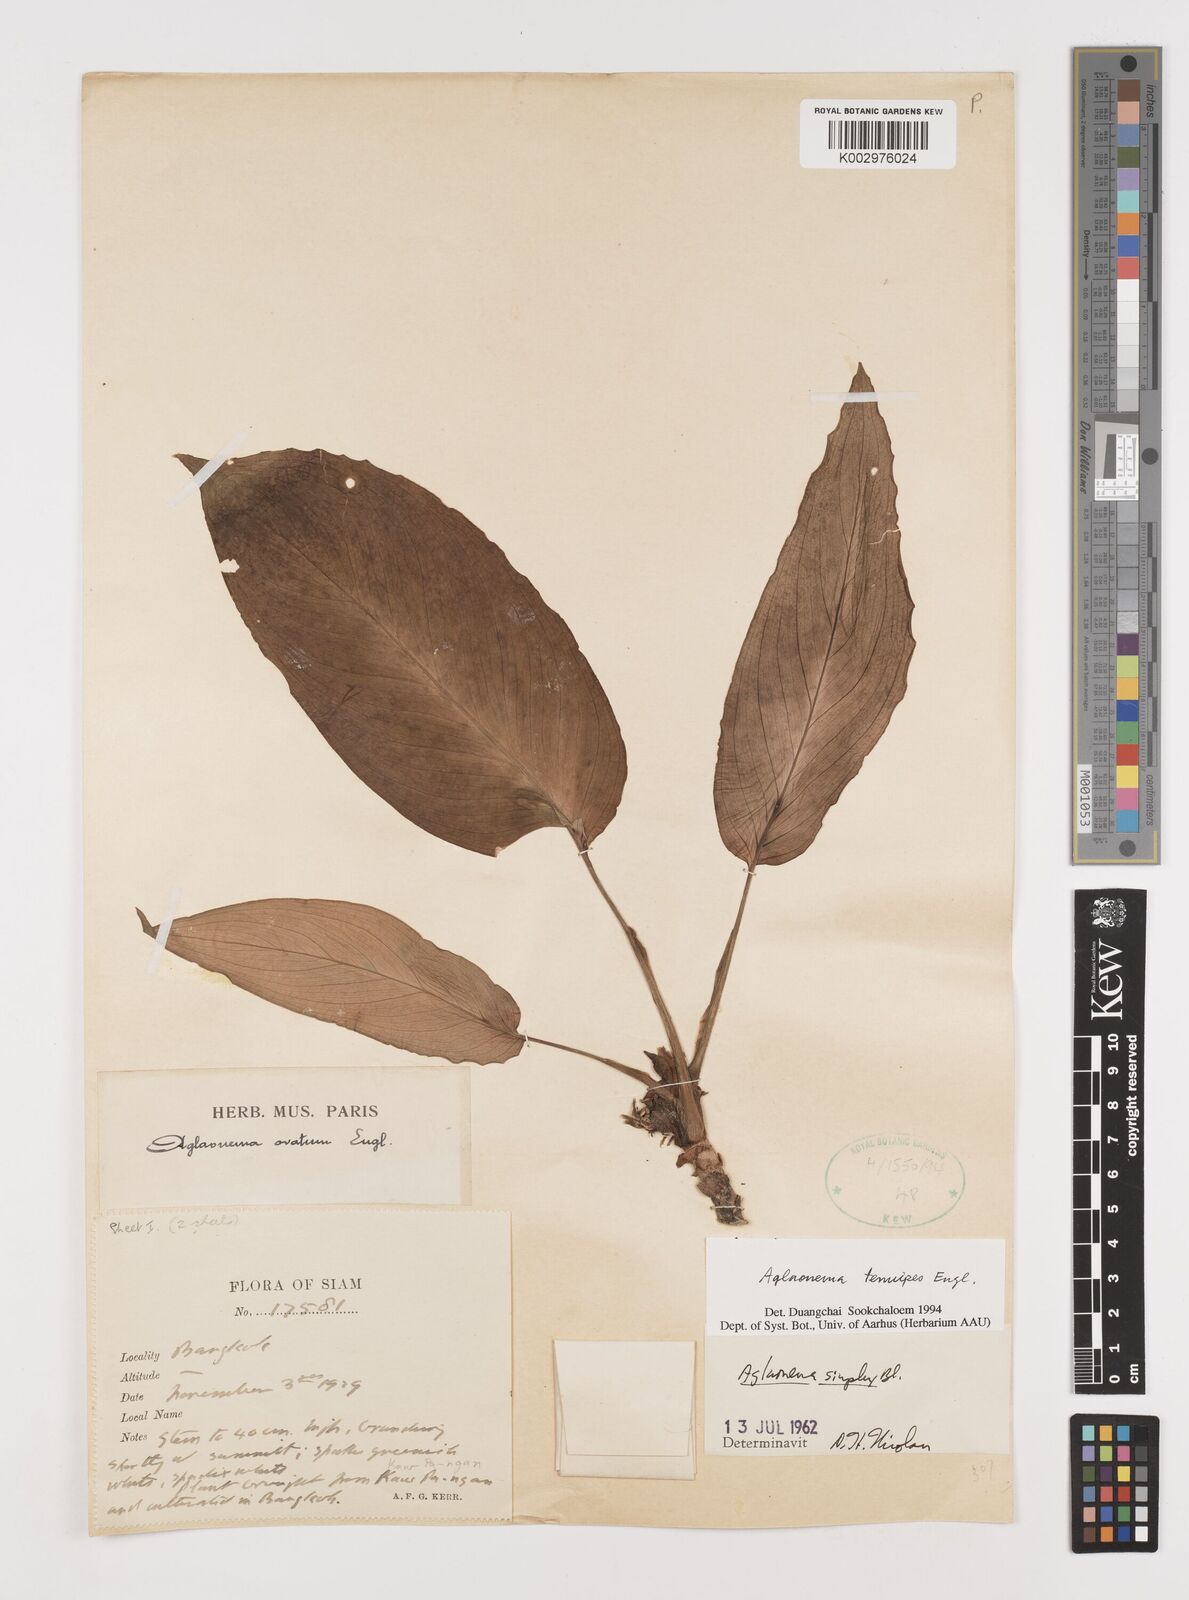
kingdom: Plantae
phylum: Tracheophyta
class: Liliopsida
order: Alismatales
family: Araceae
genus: Aglaonema
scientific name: Aglaonema simplex
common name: Malayan-sword
